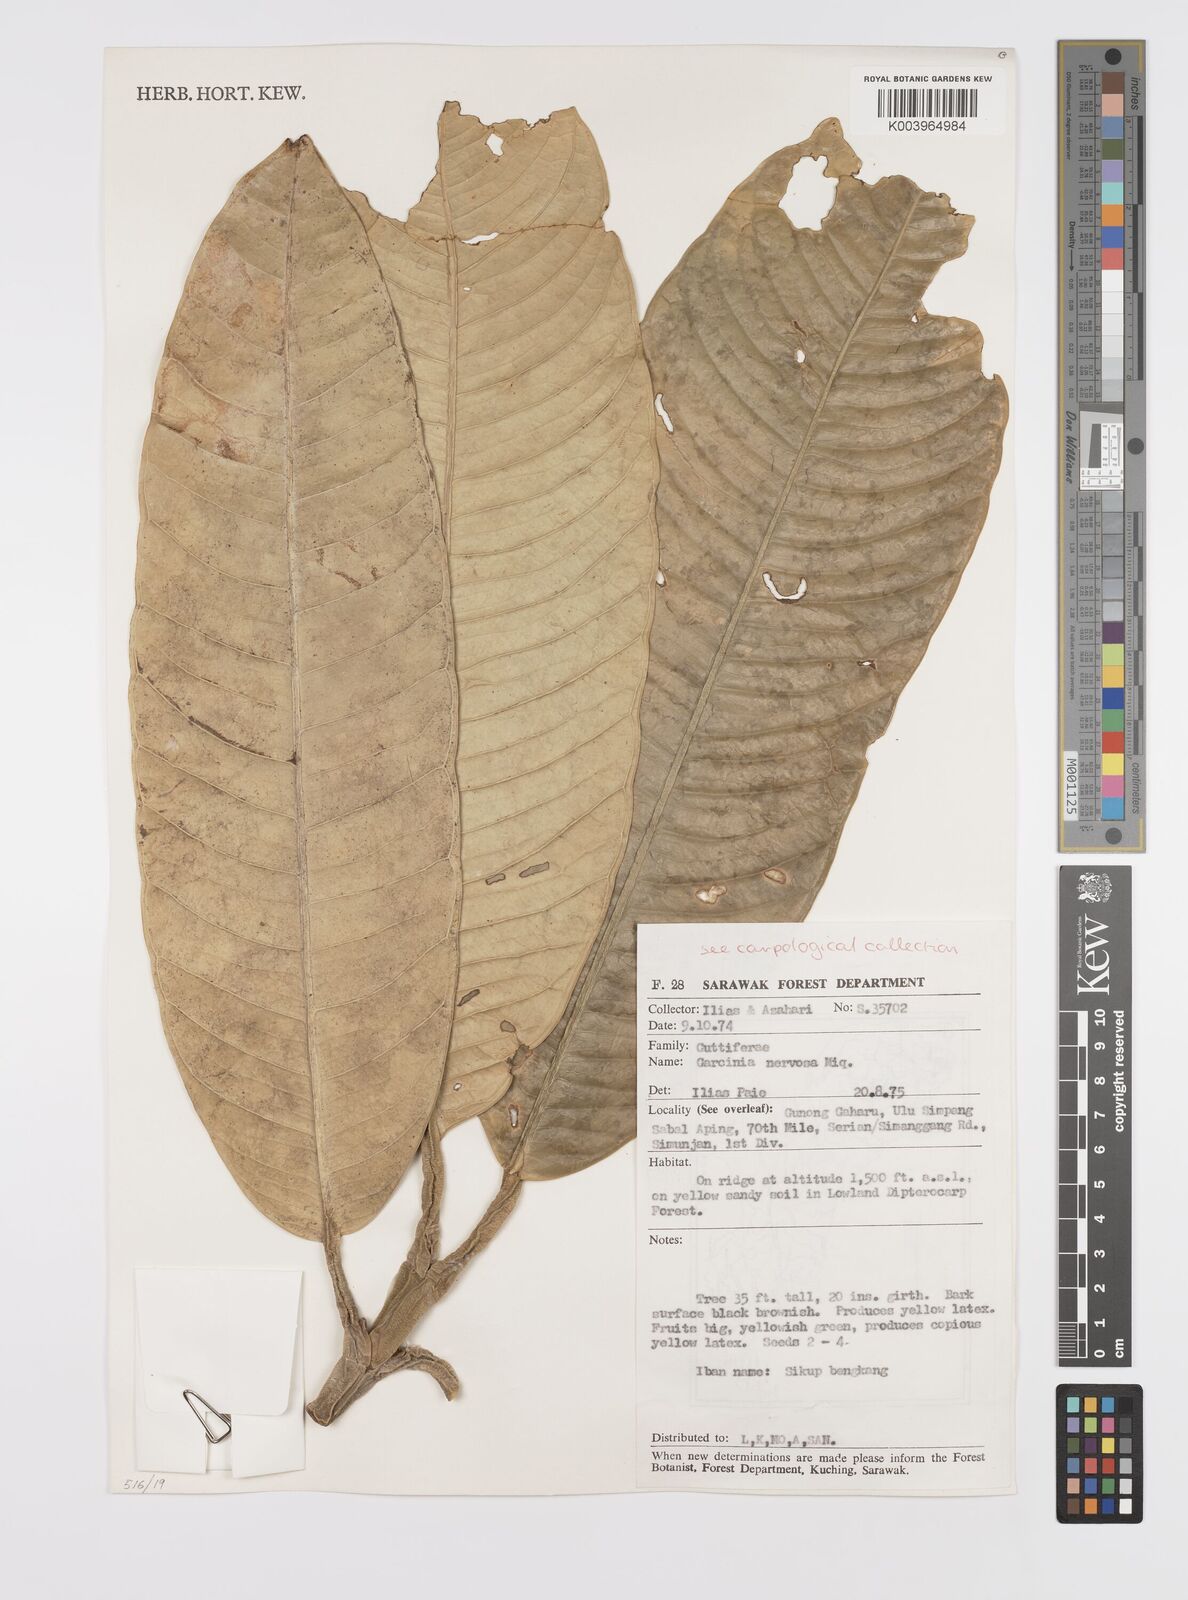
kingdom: Plantae
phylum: Tracheophyta
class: Magnoliopsida
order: Malpighiales
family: Clusiaceae
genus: Garcinia
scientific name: Garcinia nervosa
